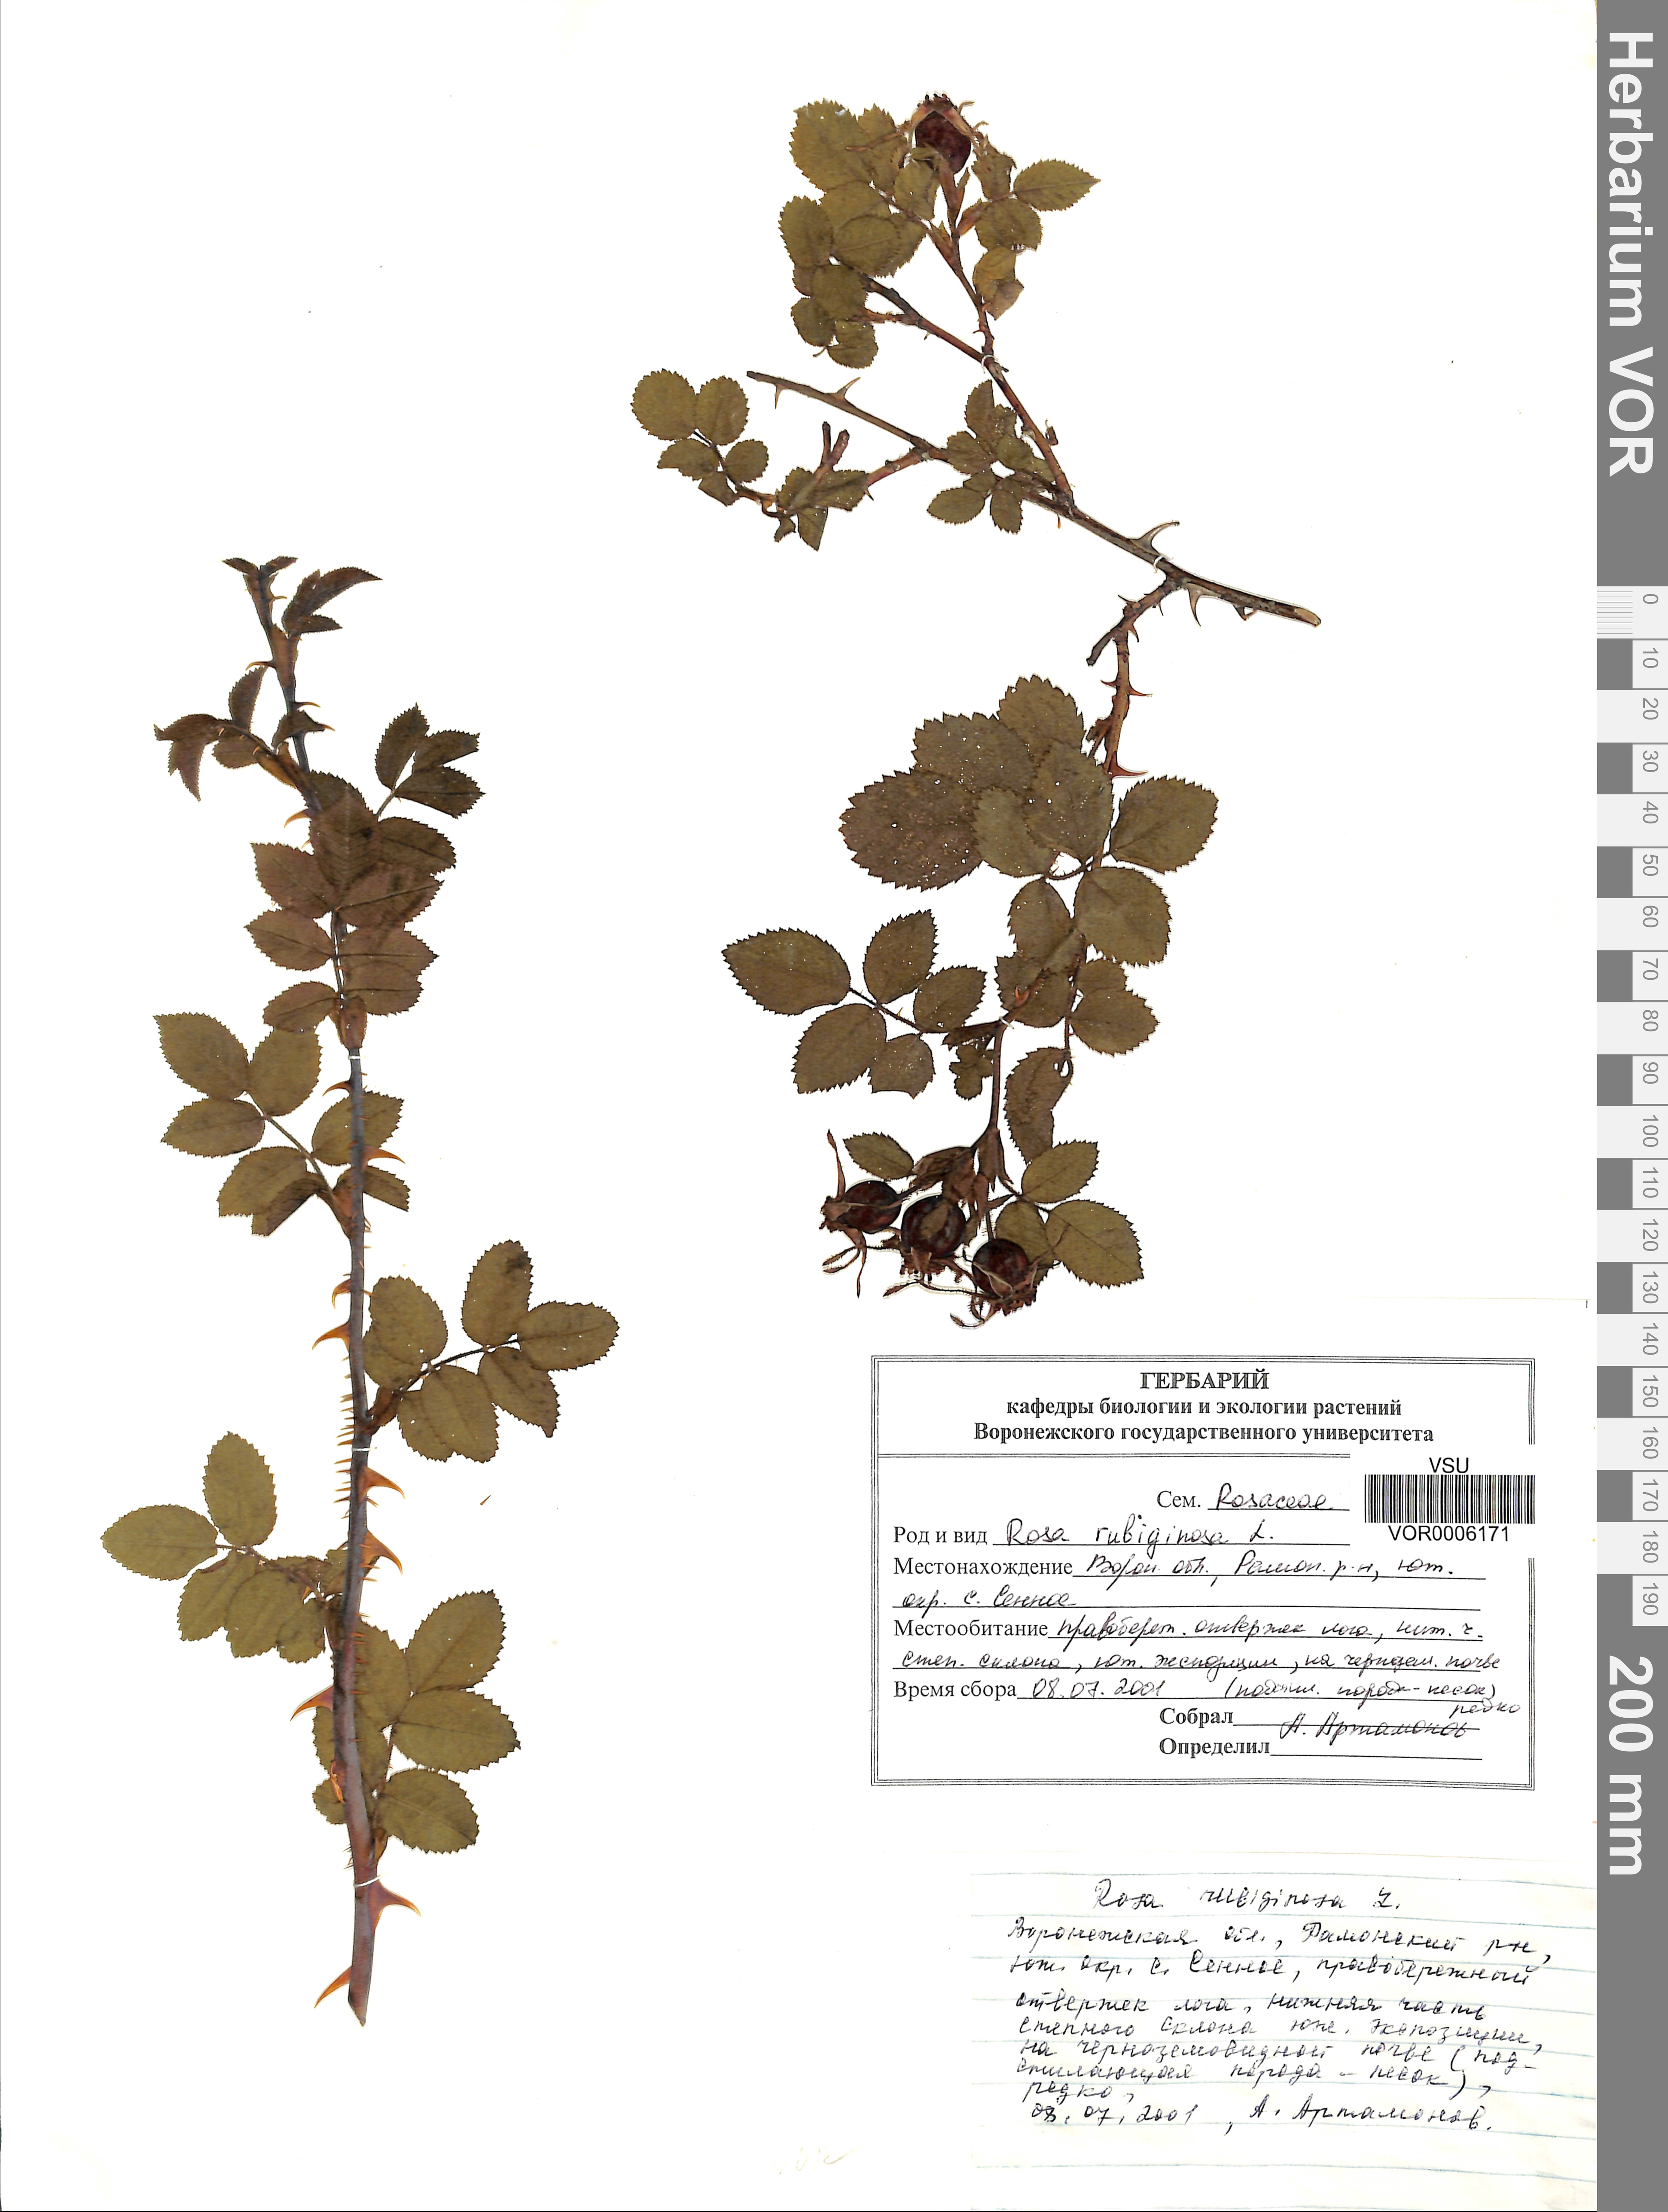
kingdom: Plantae
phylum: Tracheophyta
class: Magnoliopsida
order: Rosales
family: Rosaceae
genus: Rosa
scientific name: Rosa rubiginosa
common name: Sweet-briar
